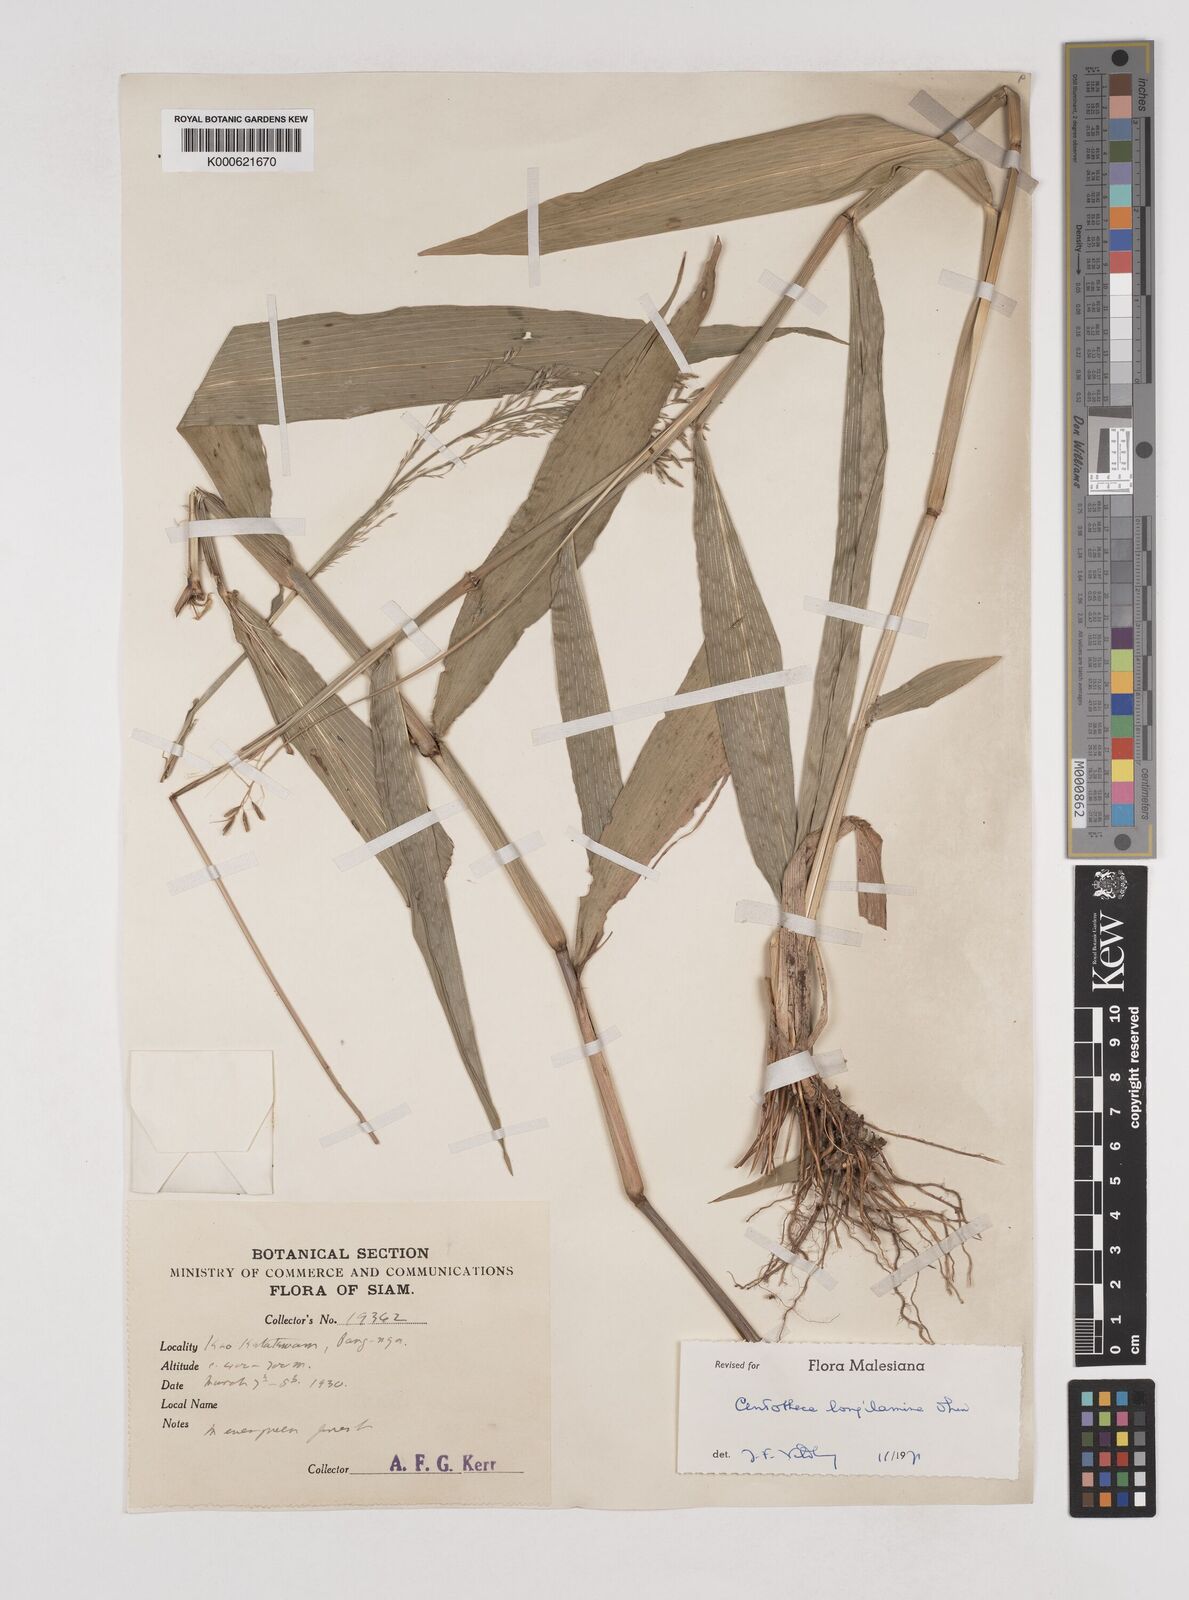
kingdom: Plantae
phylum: Tracheophyta
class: Liliopsida
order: Poales
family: Poaceae
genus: Centotheca
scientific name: Centotheca lappacea
